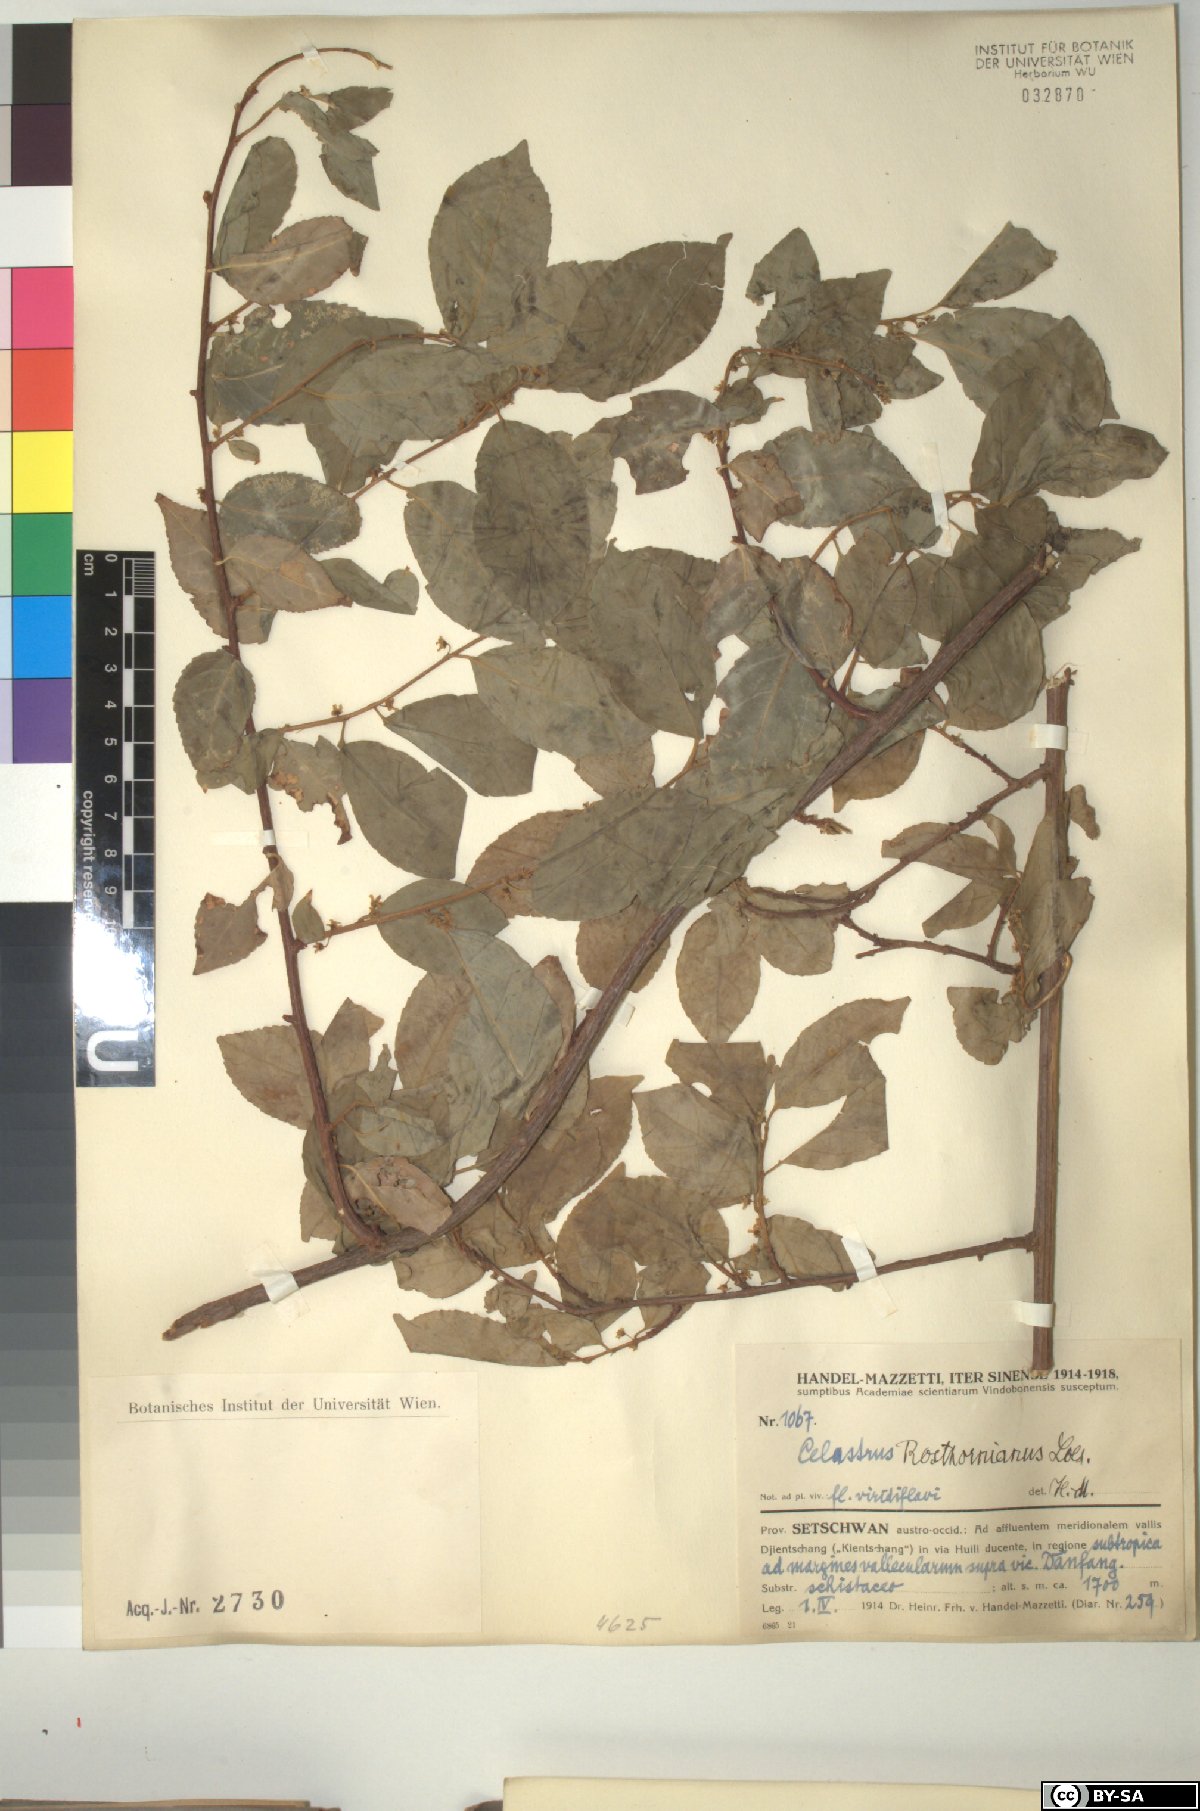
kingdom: Plantae
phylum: Tracheophyta
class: Magnoliopsida
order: Celastrales
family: Celastraceae
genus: Celastrus
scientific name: Celastrus rosthornianus
